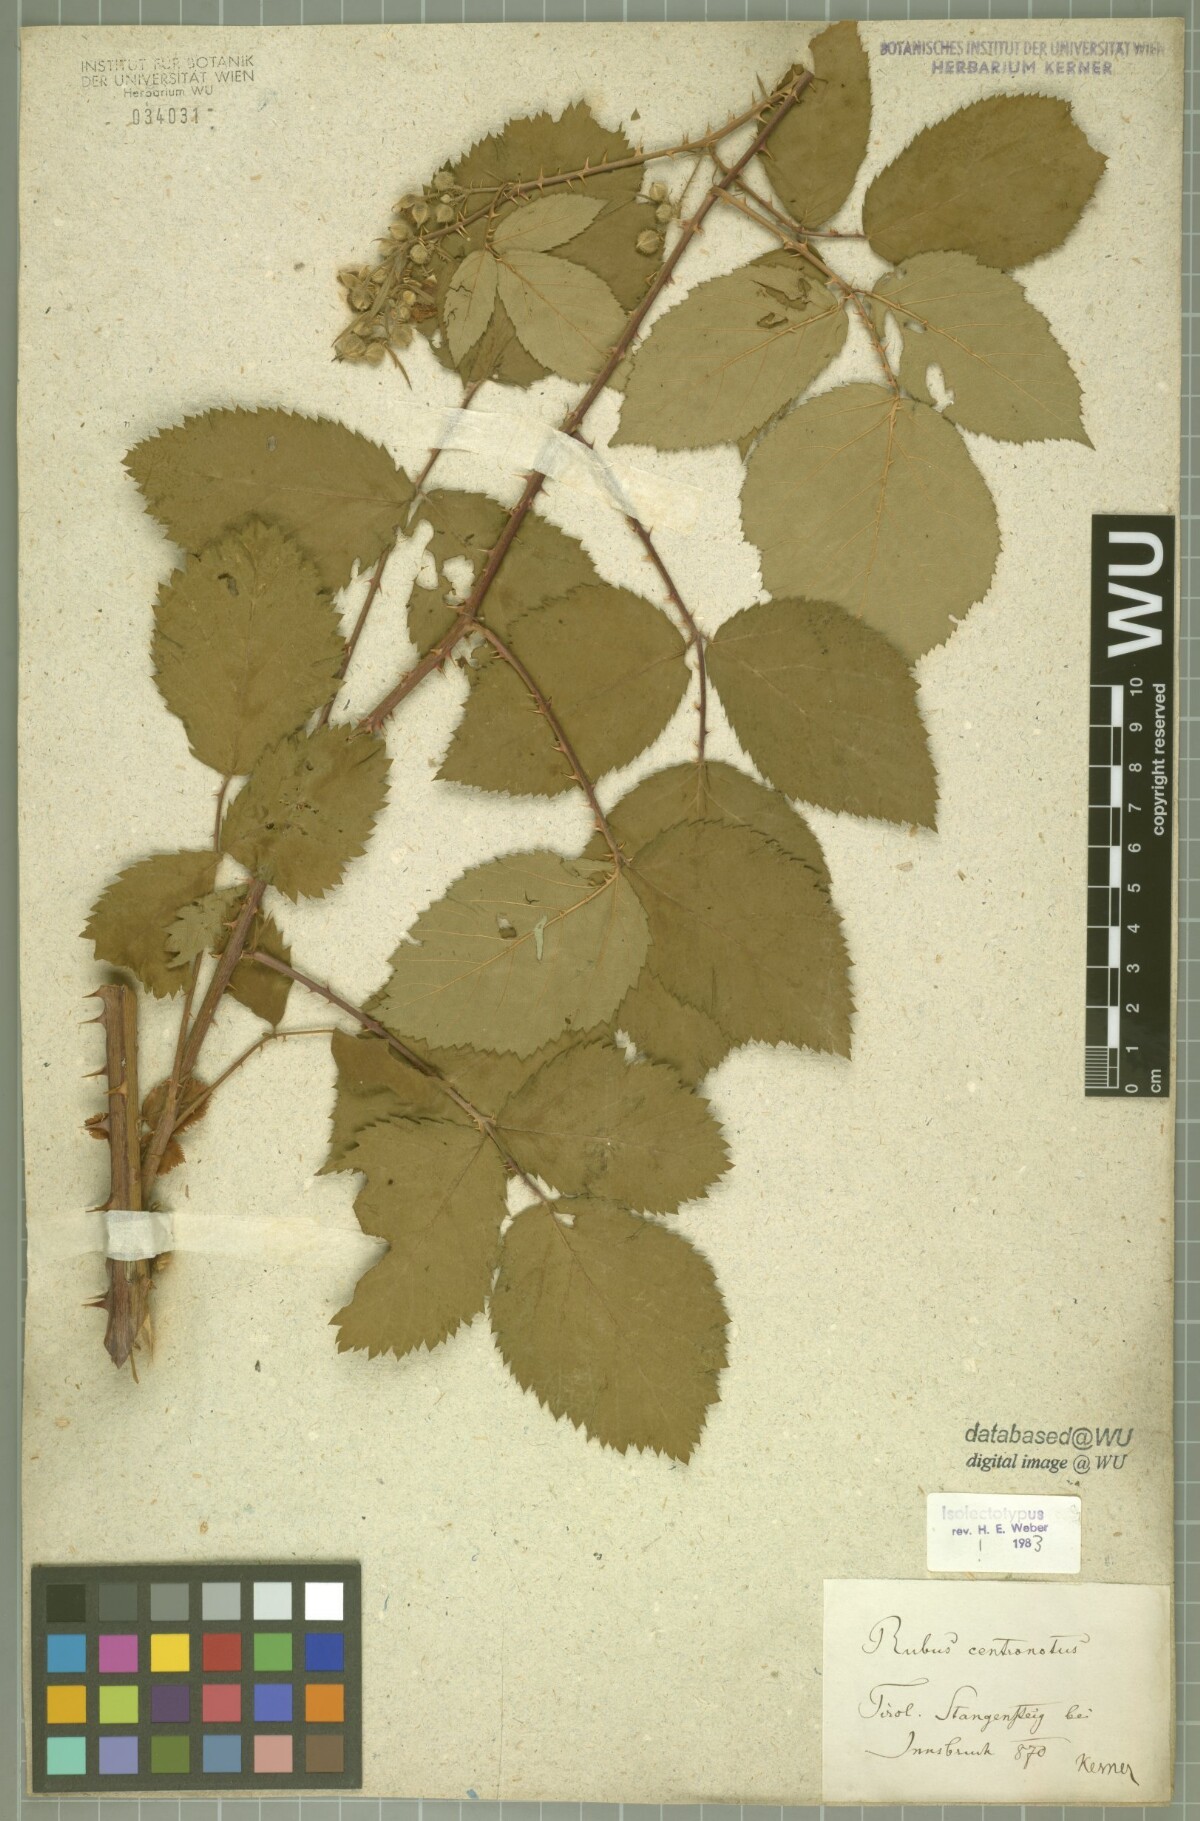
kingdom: Plantae
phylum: Tracheophyta
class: Magnoliopsida
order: Rosales
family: Rosaceae
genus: Rubus
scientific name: Rubus centronotus
